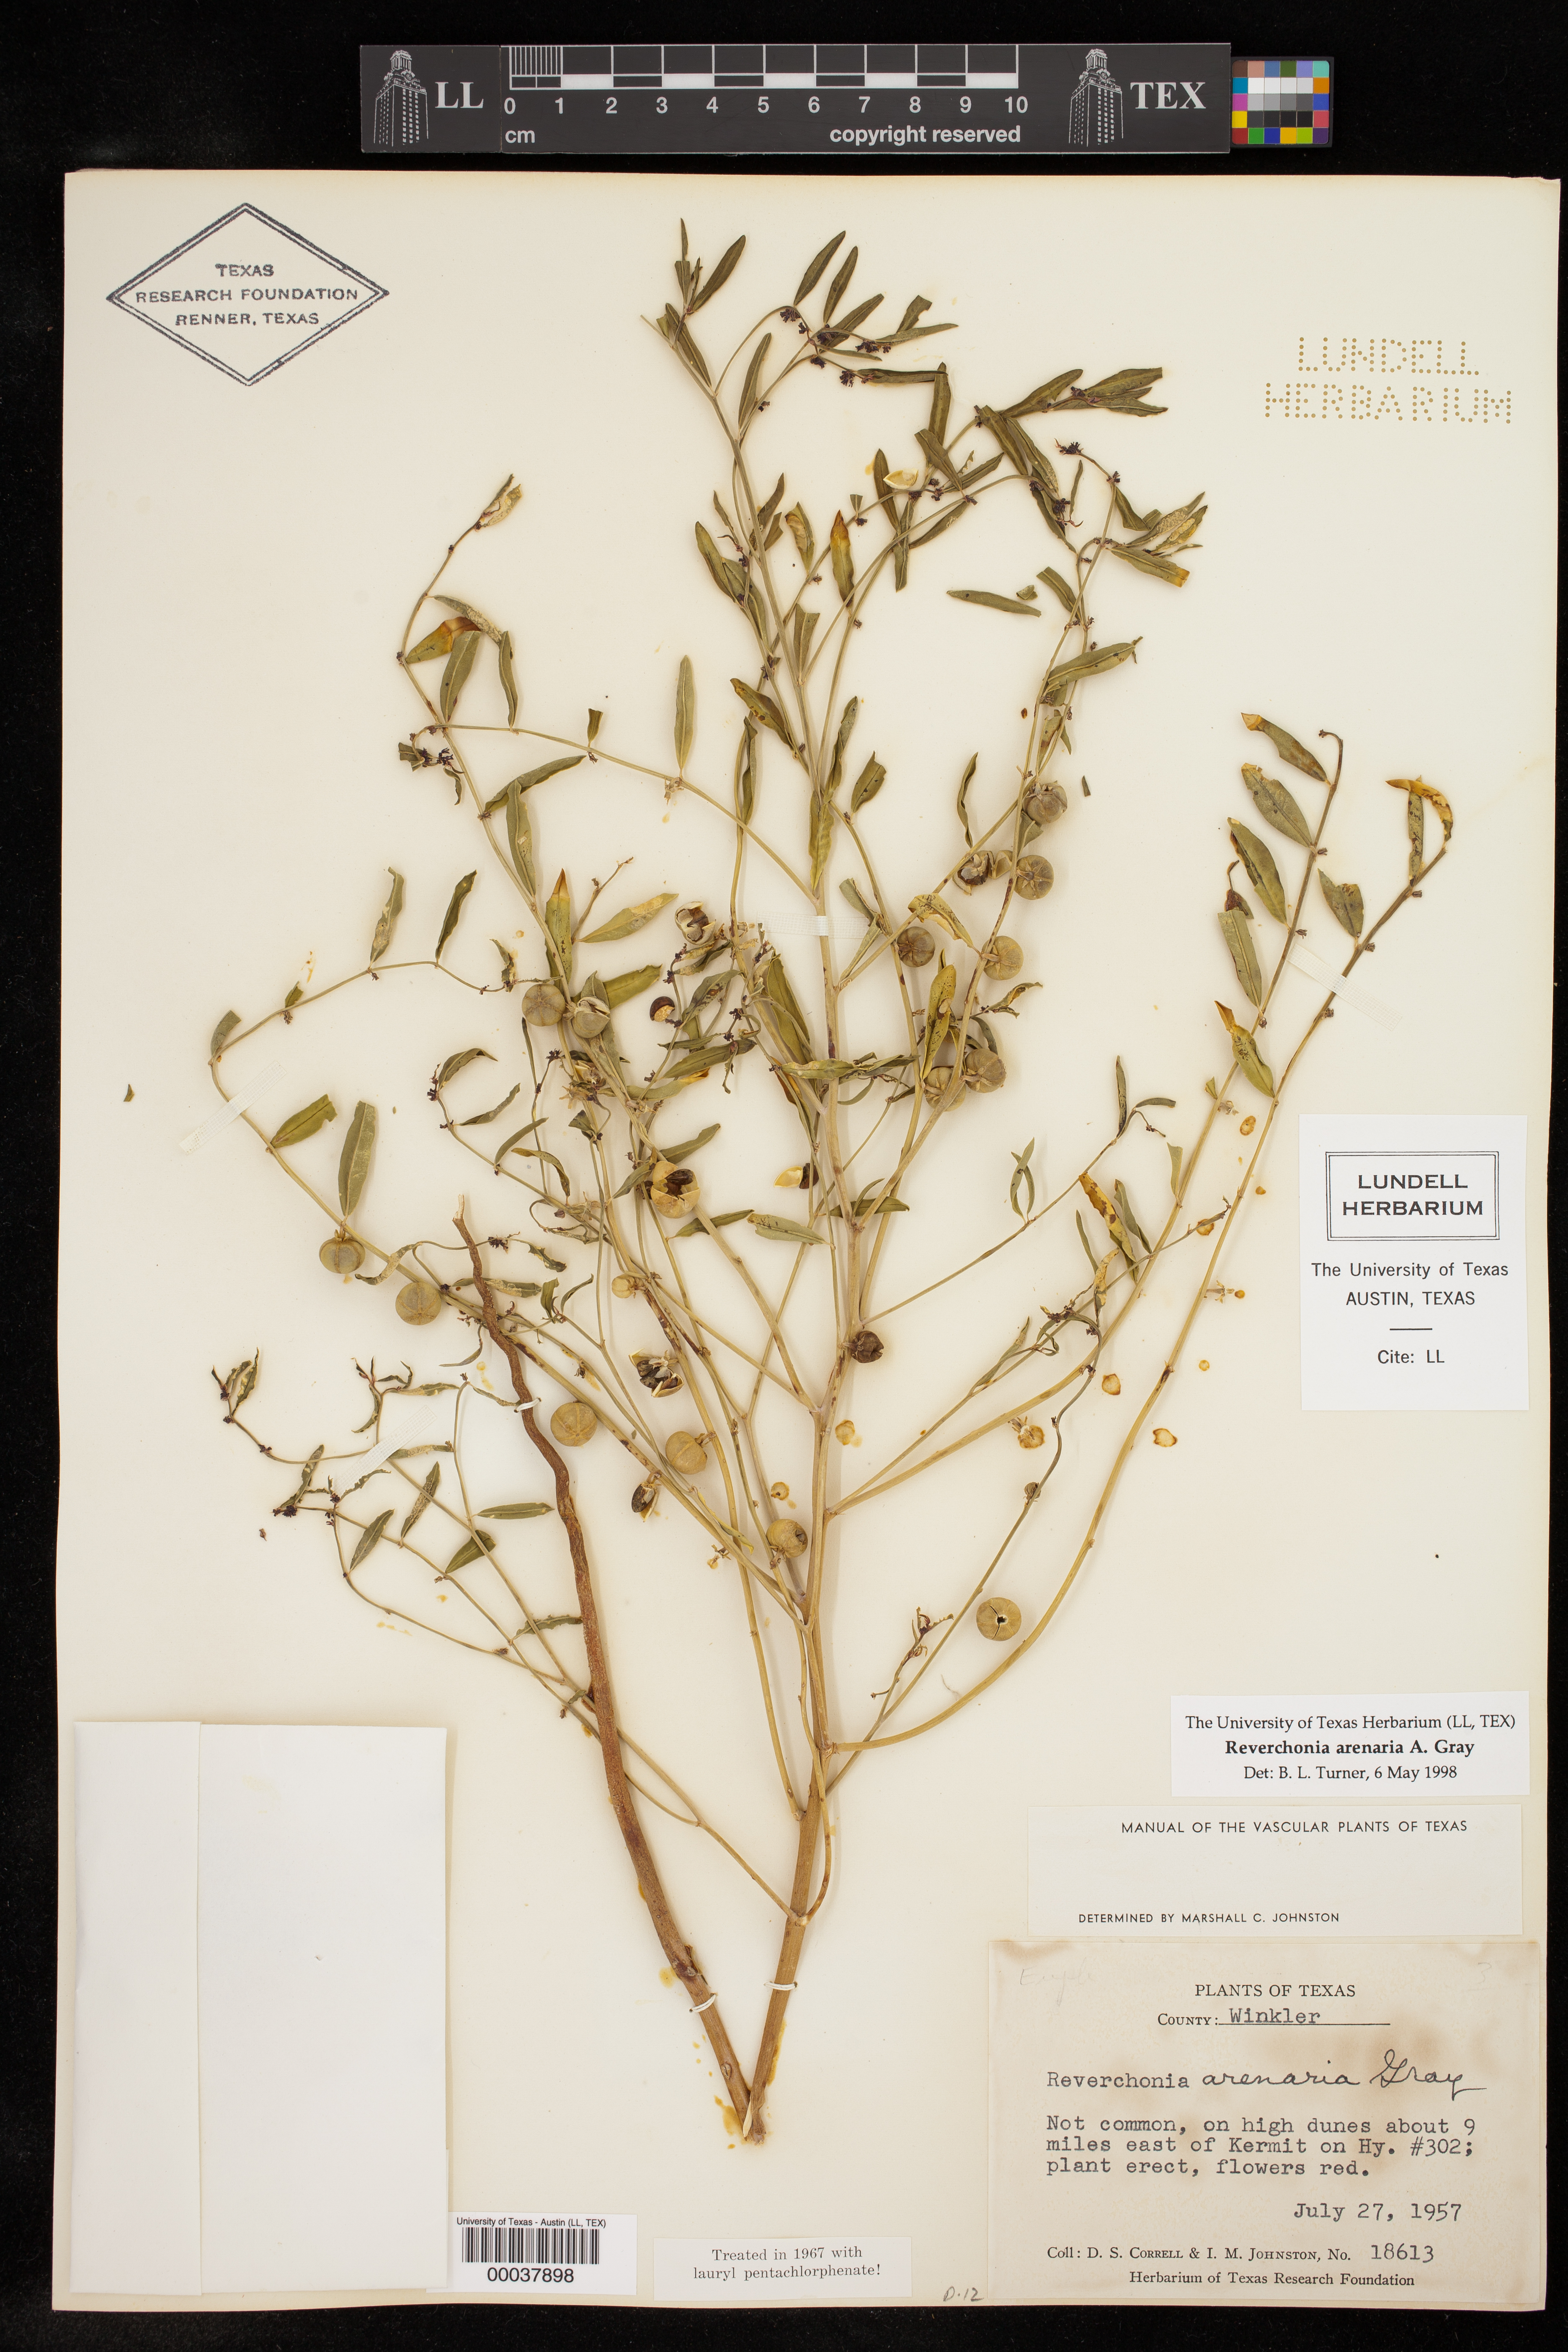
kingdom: Plantae
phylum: Tracheophyta
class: Magnoliopsida
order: Malpighiales
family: Phyllanthaceae
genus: Phyllanthus
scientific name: Phyllanthus warnockii
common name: Sand reverchonia
